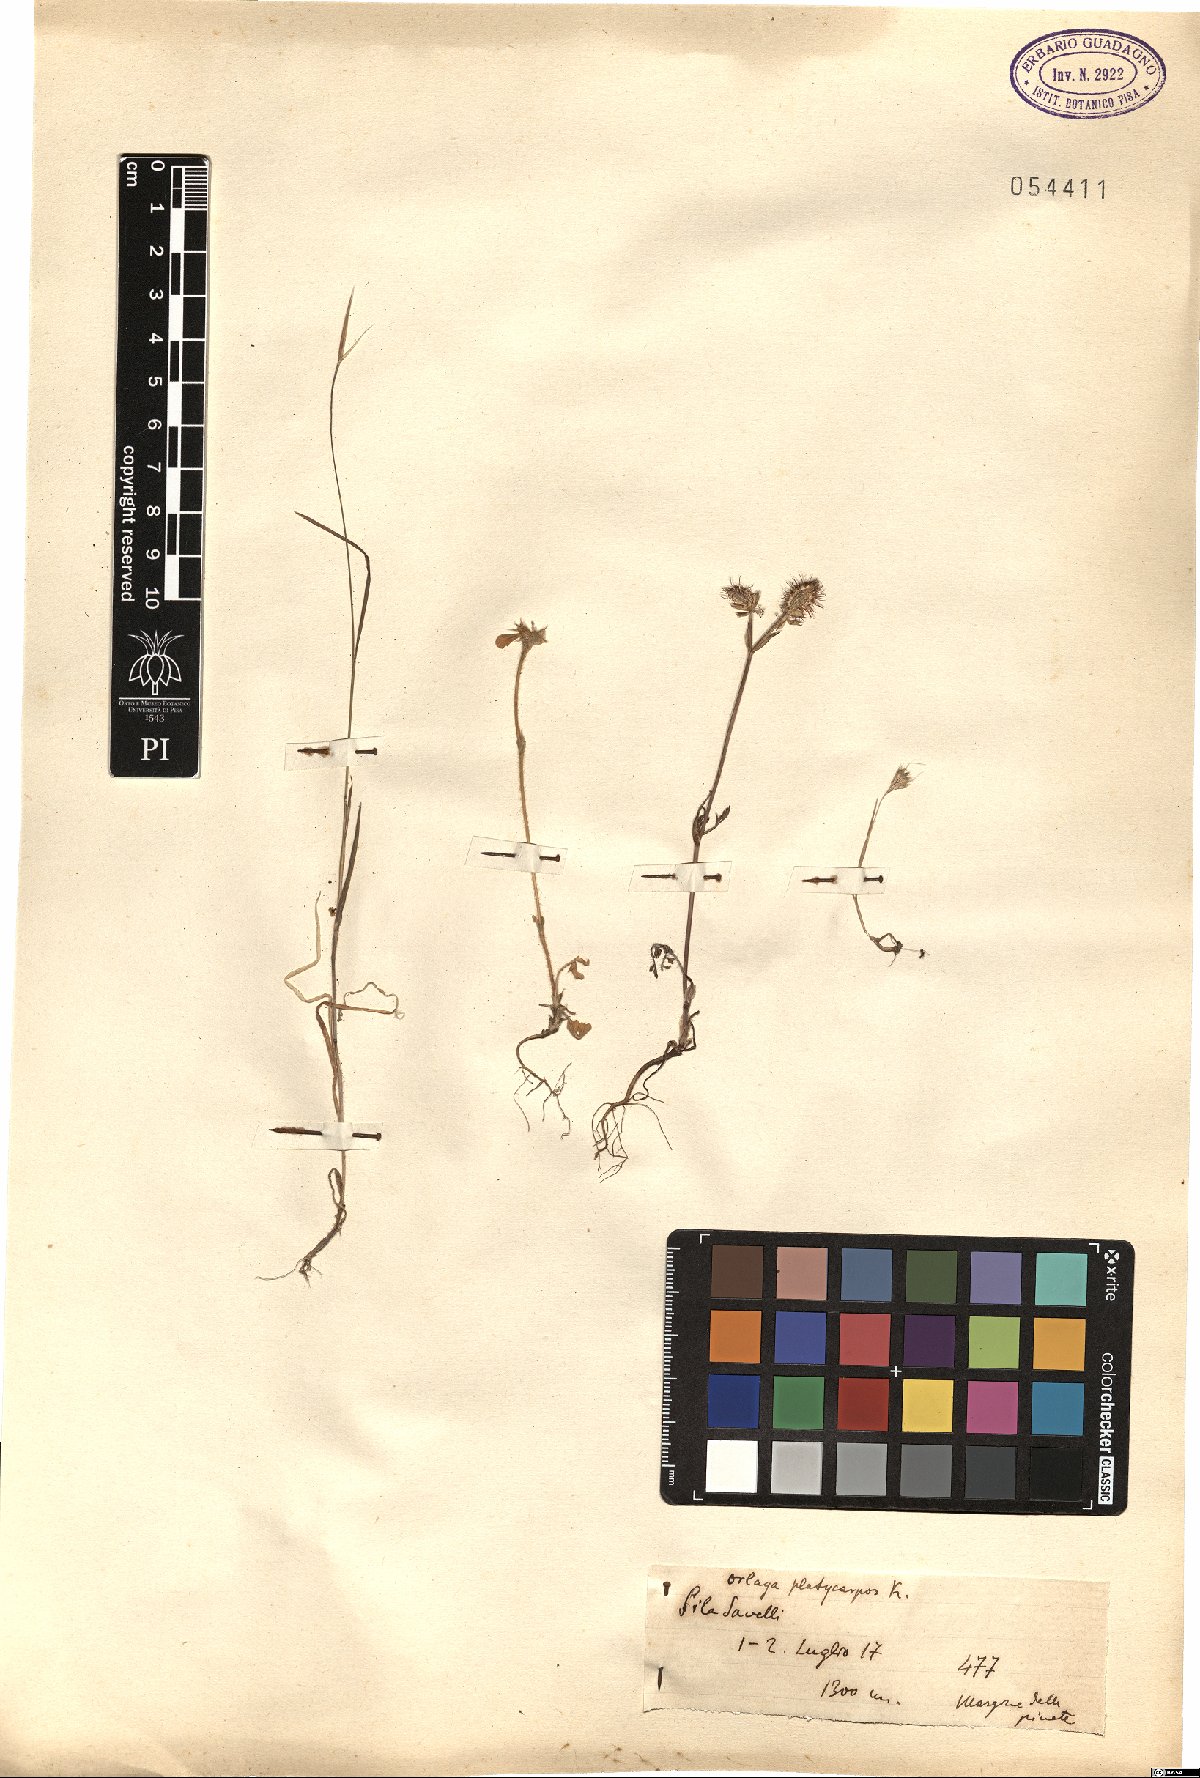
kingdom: Plantae
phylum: Tracheophyta
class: Magnoliopsida
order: Apiales
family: Apiaceae
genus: Orlaya
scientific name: Orlaya daucoides
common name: Flat-fruit orlaya
